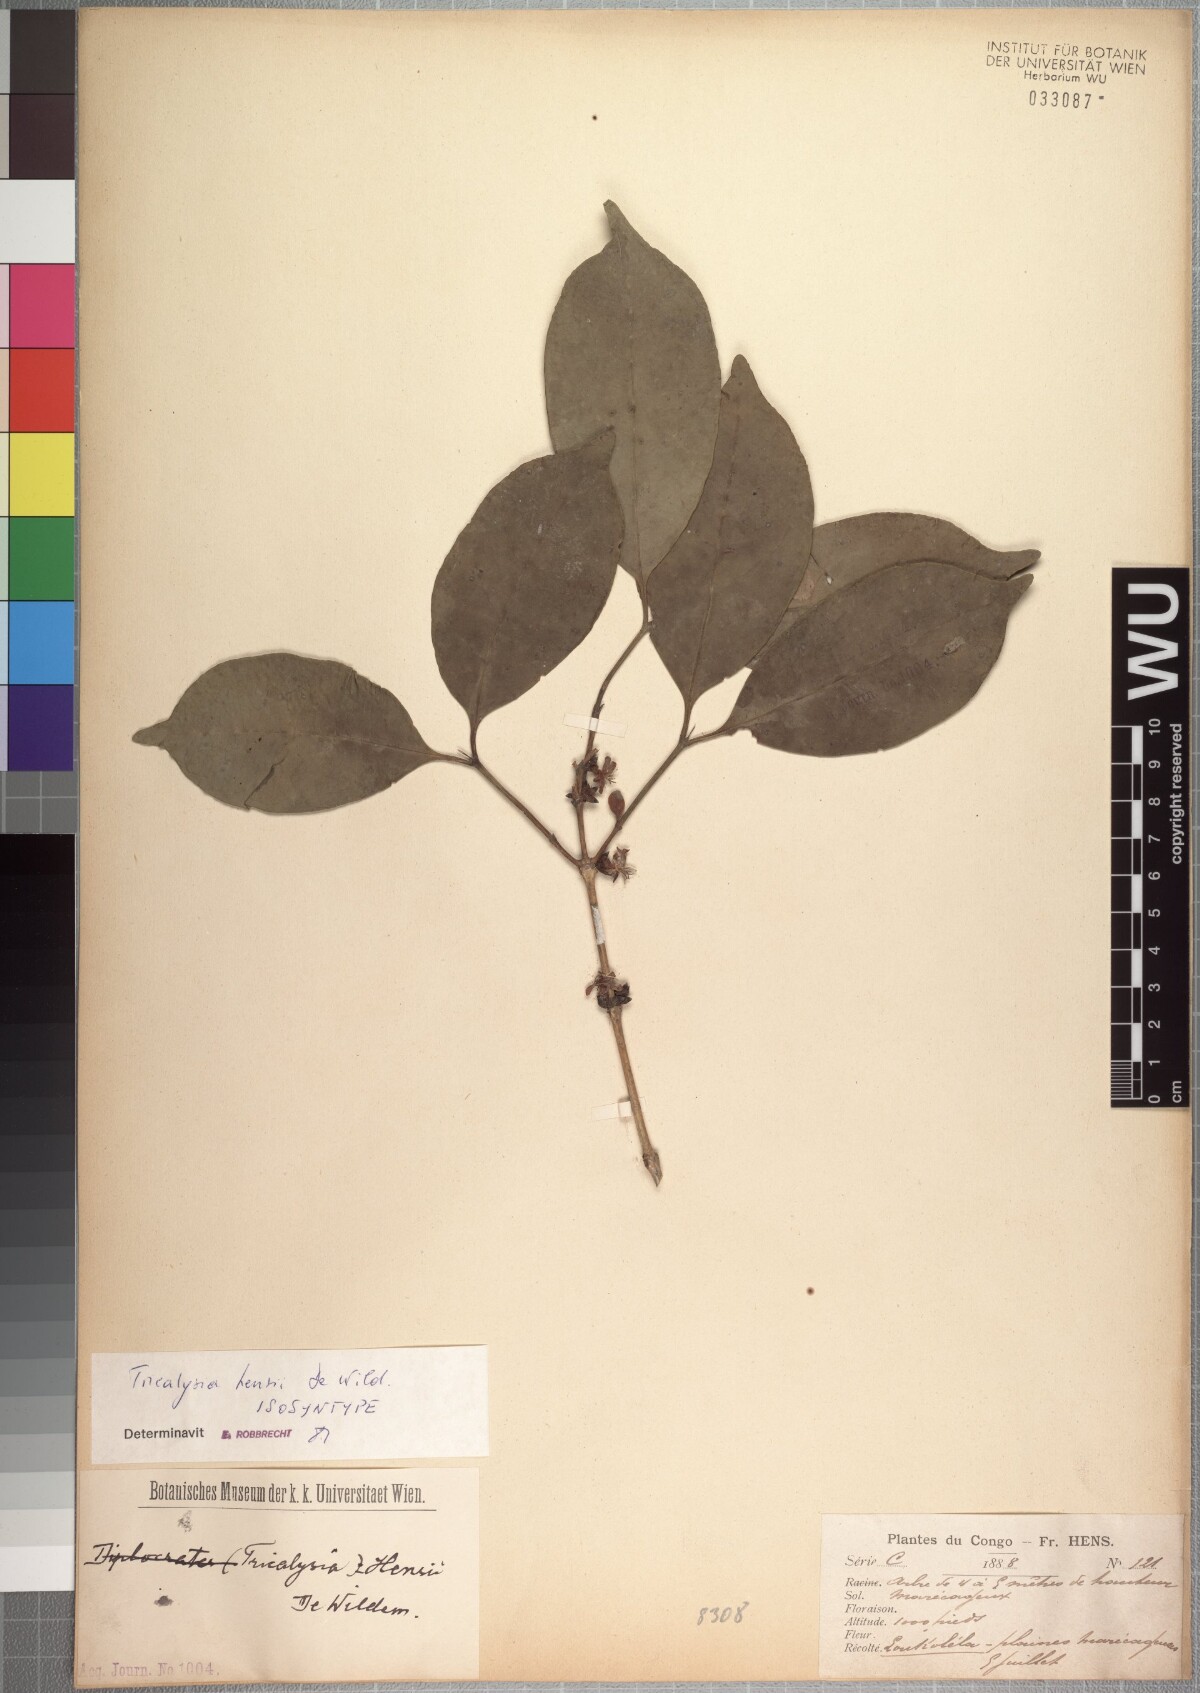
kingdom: Plantae
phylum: Tracheophyta
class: Magnoliopsida
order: Gentianales
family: Rubiaceae
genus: Tricalysia
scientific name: Tricalysia hensii
